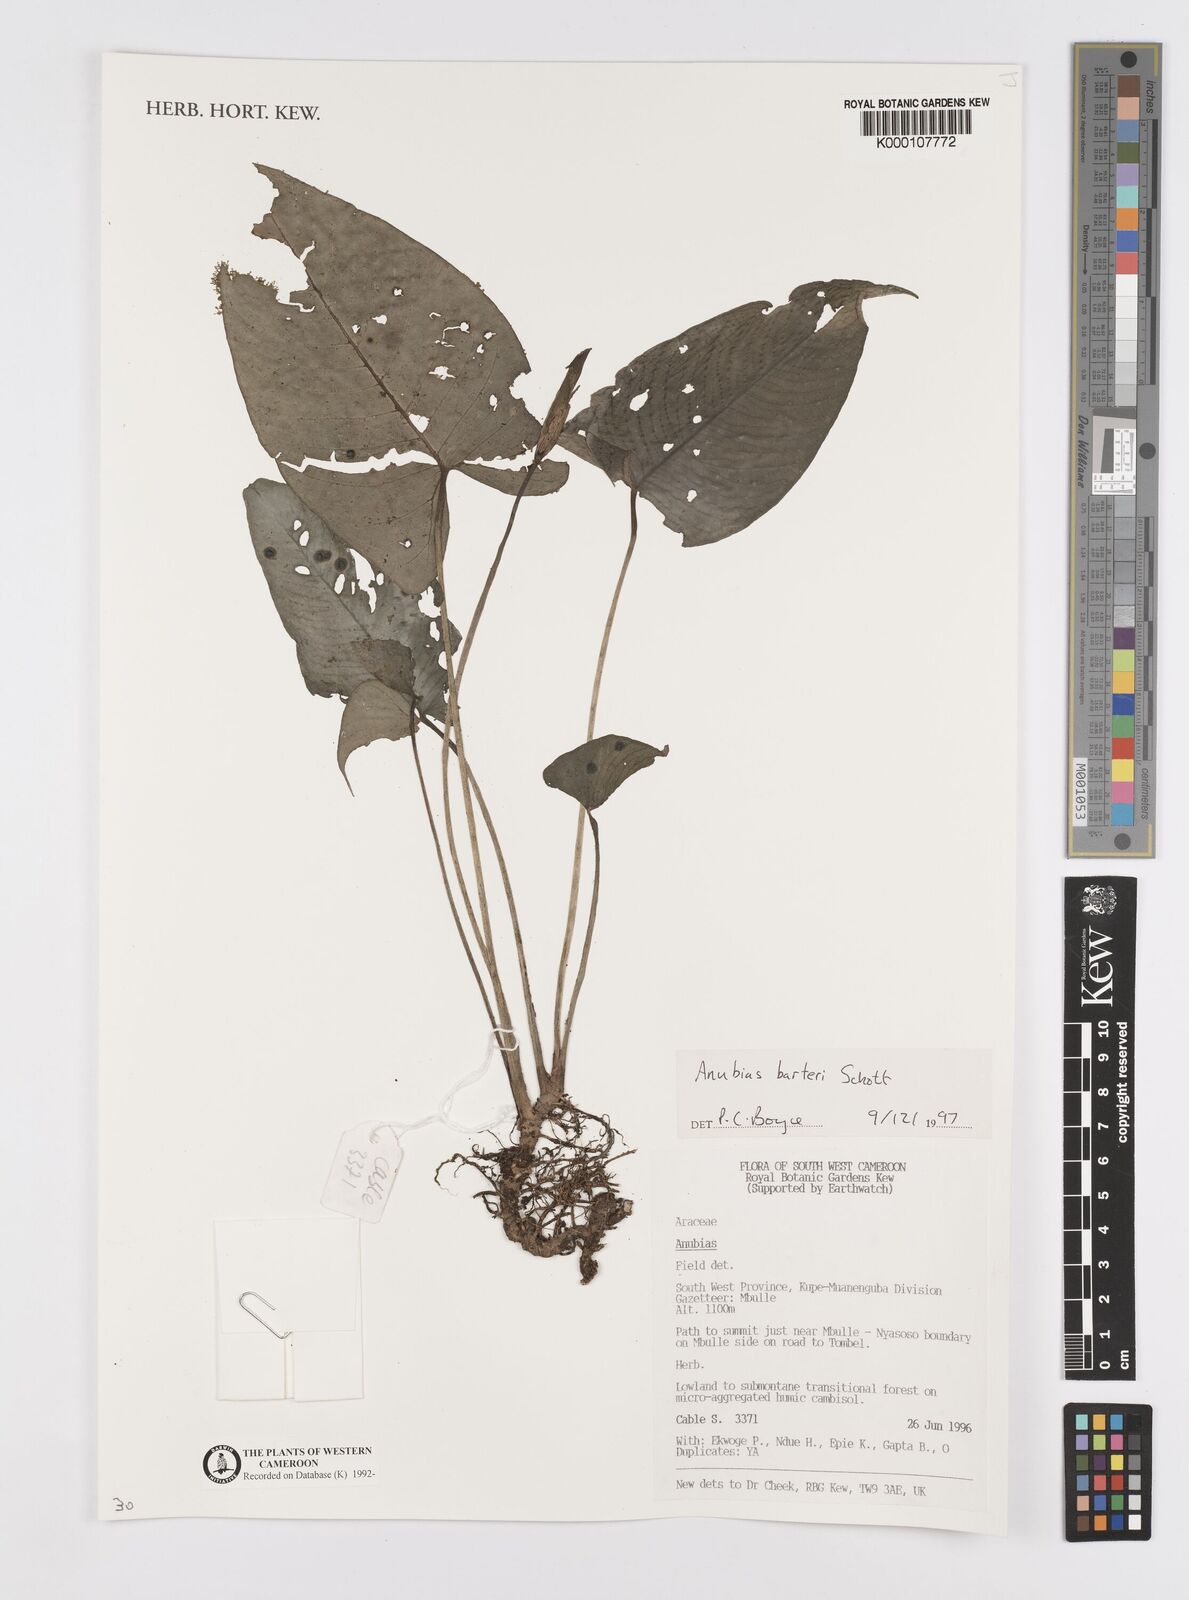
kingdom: Plantae
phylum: Tracheophyta
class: Liliopsida
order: Alismatales
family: Araceae
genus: Anubias
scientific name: Anubias barteri
